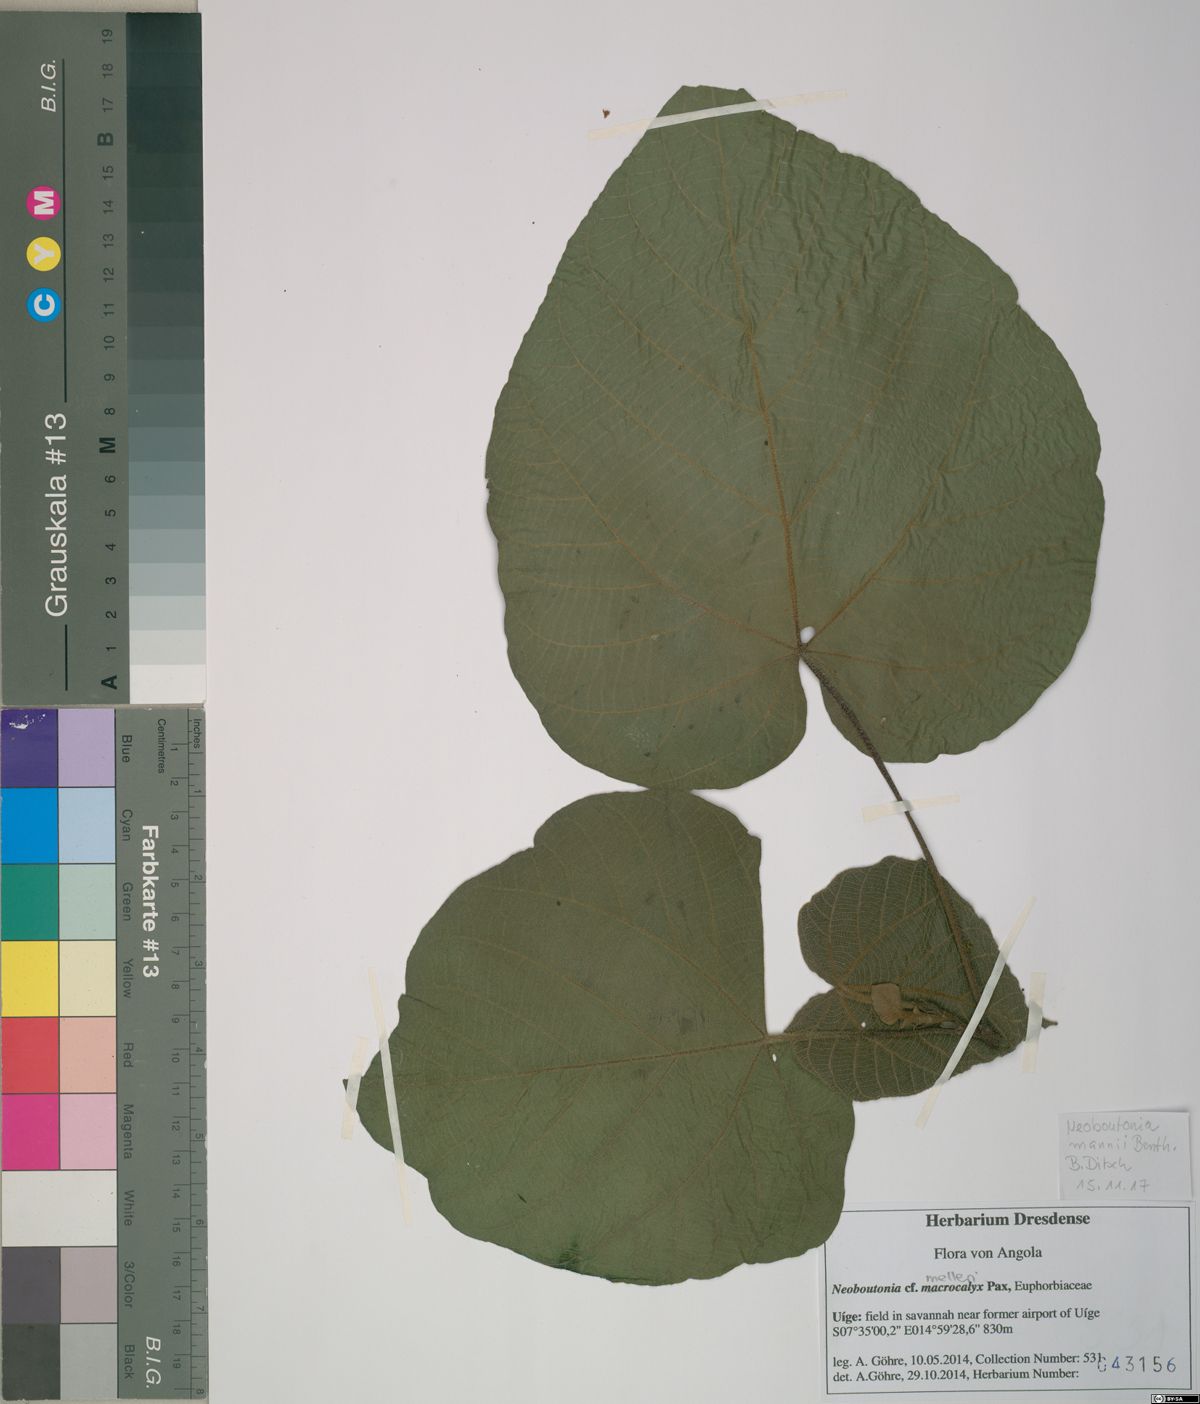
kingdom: Plantae
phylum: Tracheophyta
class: Magnoliopsida
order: Malpighiales
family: Euphorbiaceae
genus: Neoboutonia
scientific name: Neoboutonia mannii
